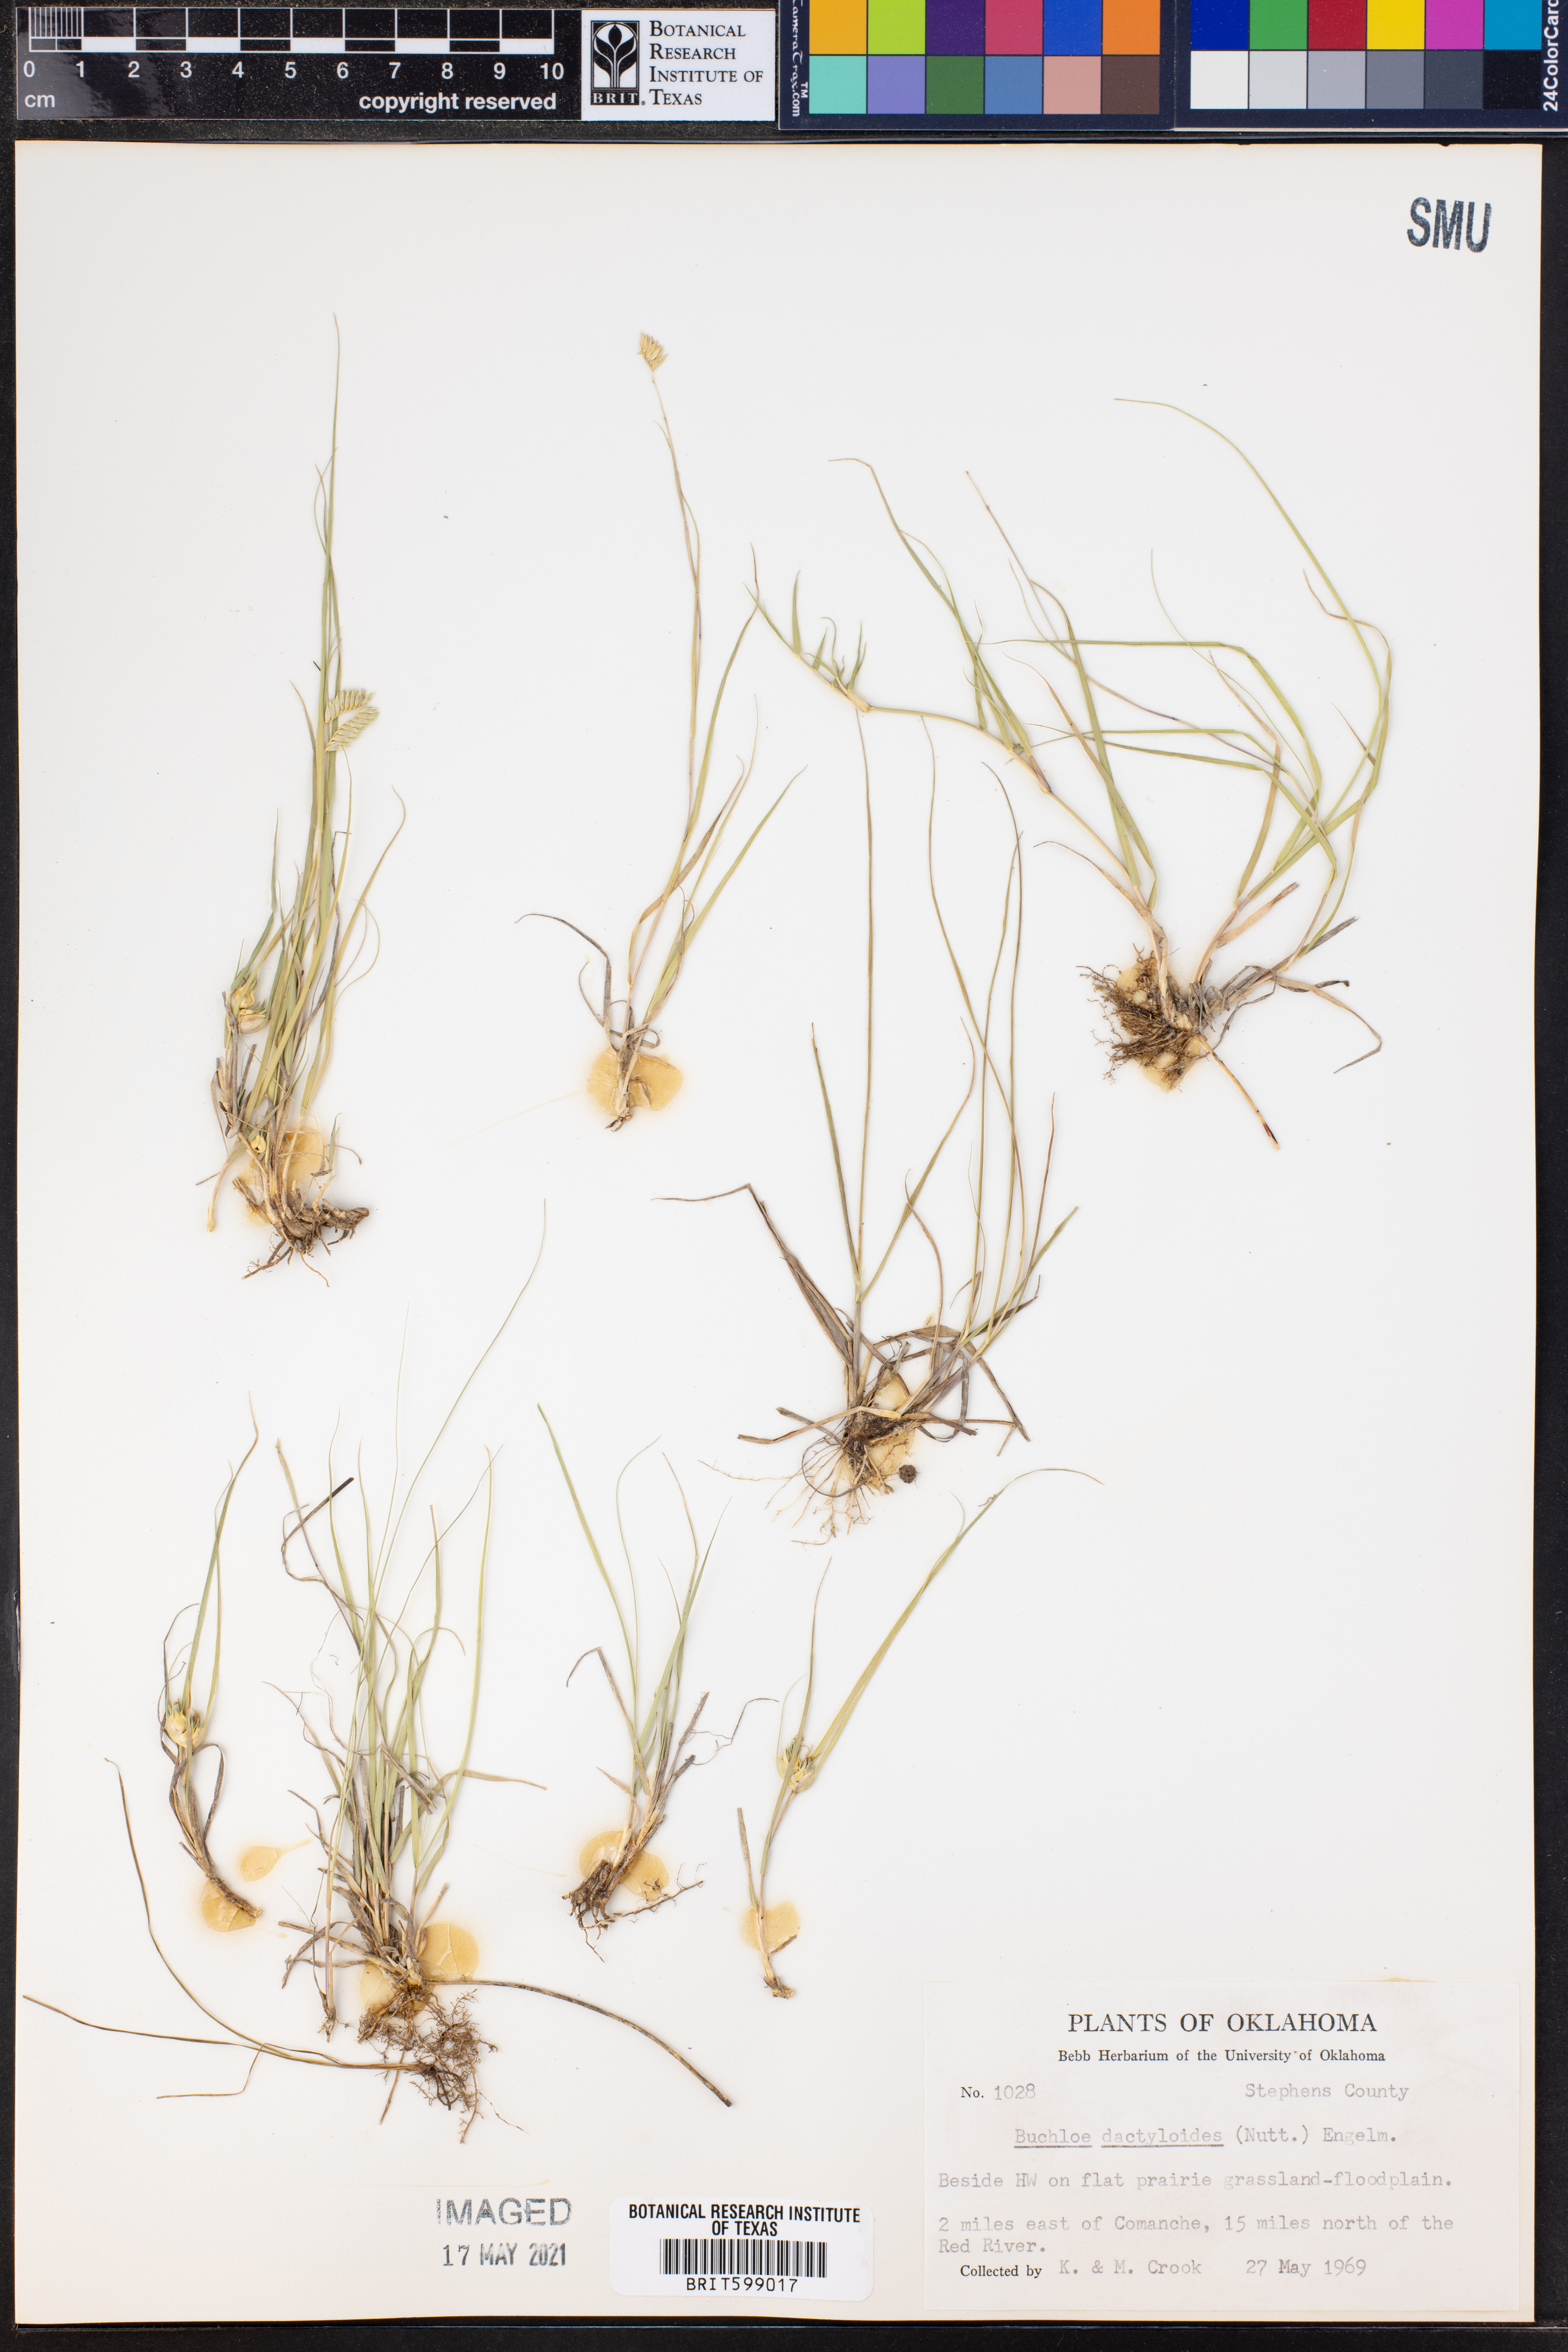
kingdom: Plantae
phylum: Tracheophyta
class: Liliopsida
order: Poales
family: Poaceae
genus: Bouteloua
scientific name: Bouteloua dactyloides
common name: Buffalo grass
